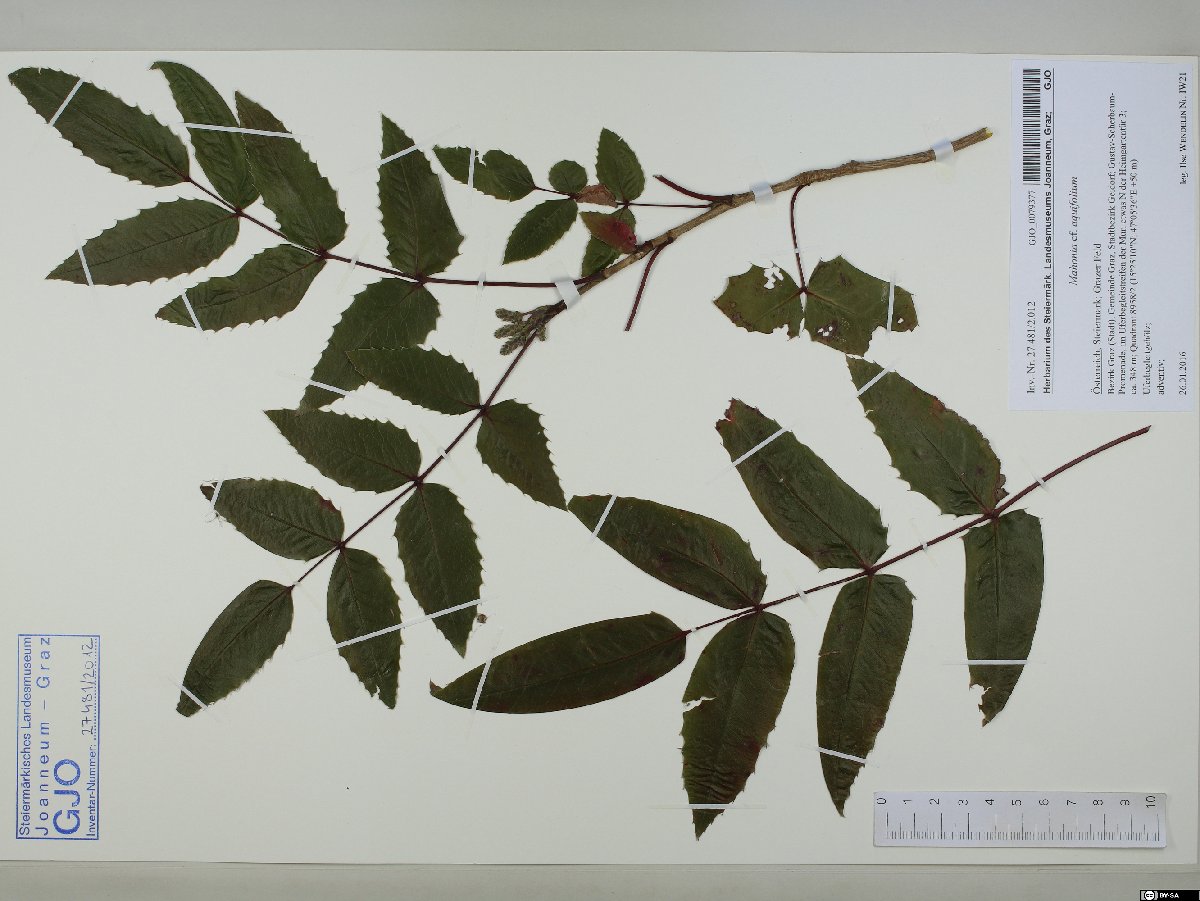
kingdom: Plantae
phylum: Tracheophyta
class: Magnoliopsida
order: Ranunculales
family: Berberidaceae
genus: Mahonia
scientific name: Mahonia aquifolium
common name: Oregon-grape
